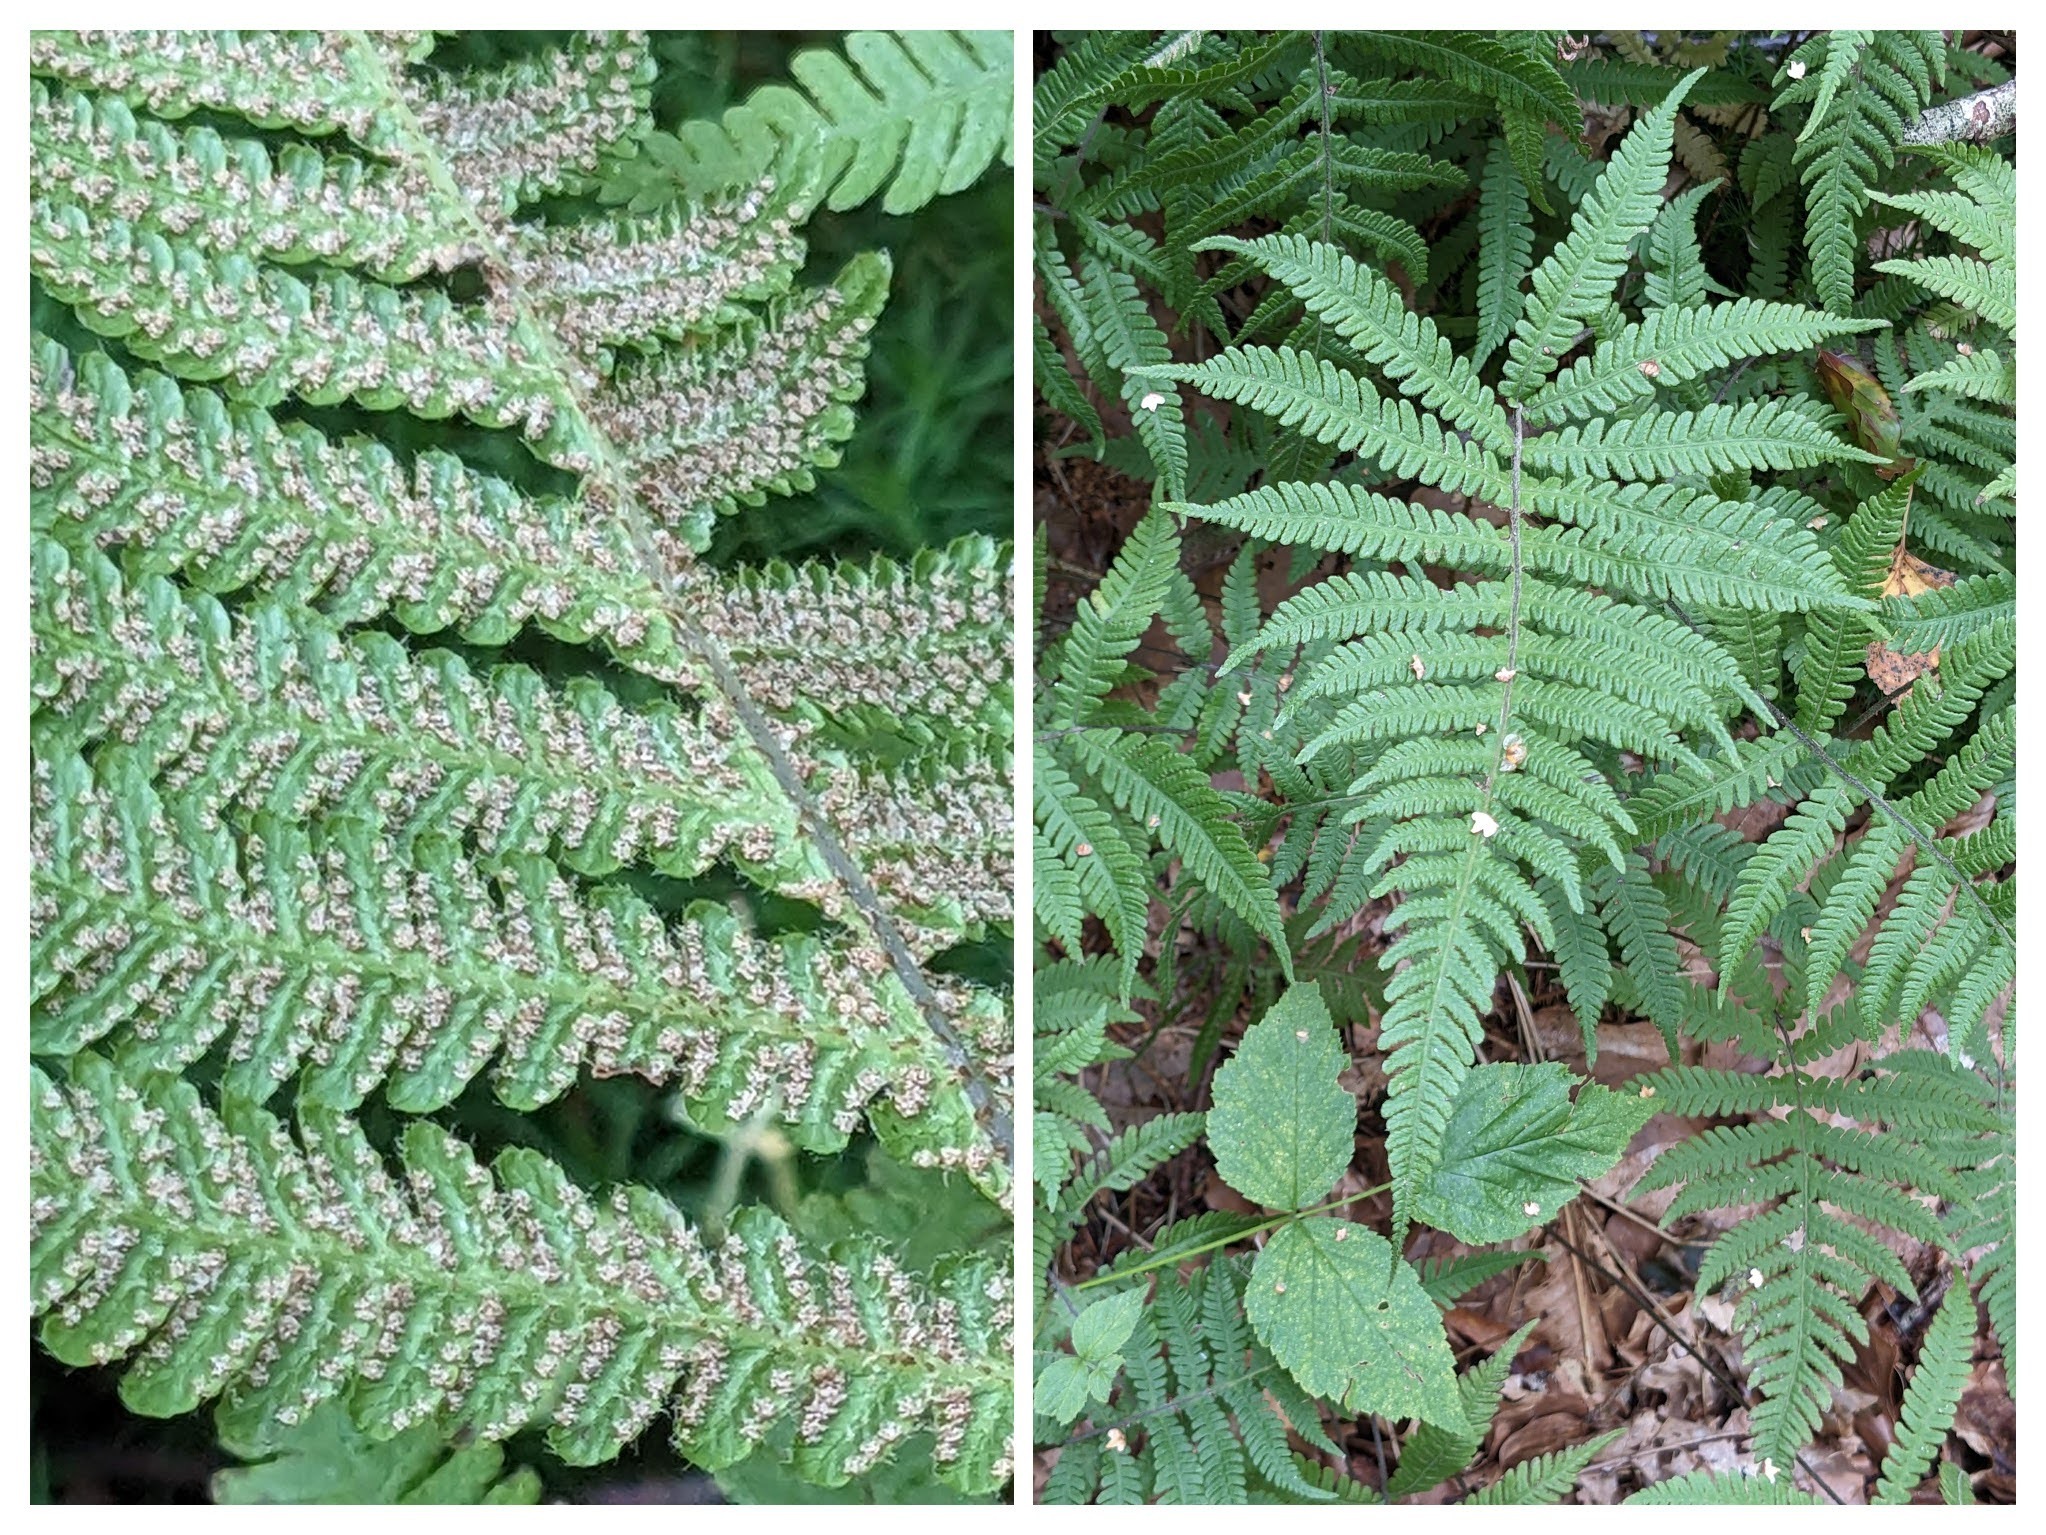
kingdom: Plantae
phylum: Tracheophyta
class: Polypodiopsida
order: Polypodiales
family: Thelypteridaceae
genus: Phegopteris
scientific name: Phegopteris connectilis
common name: Dunet egebregne
